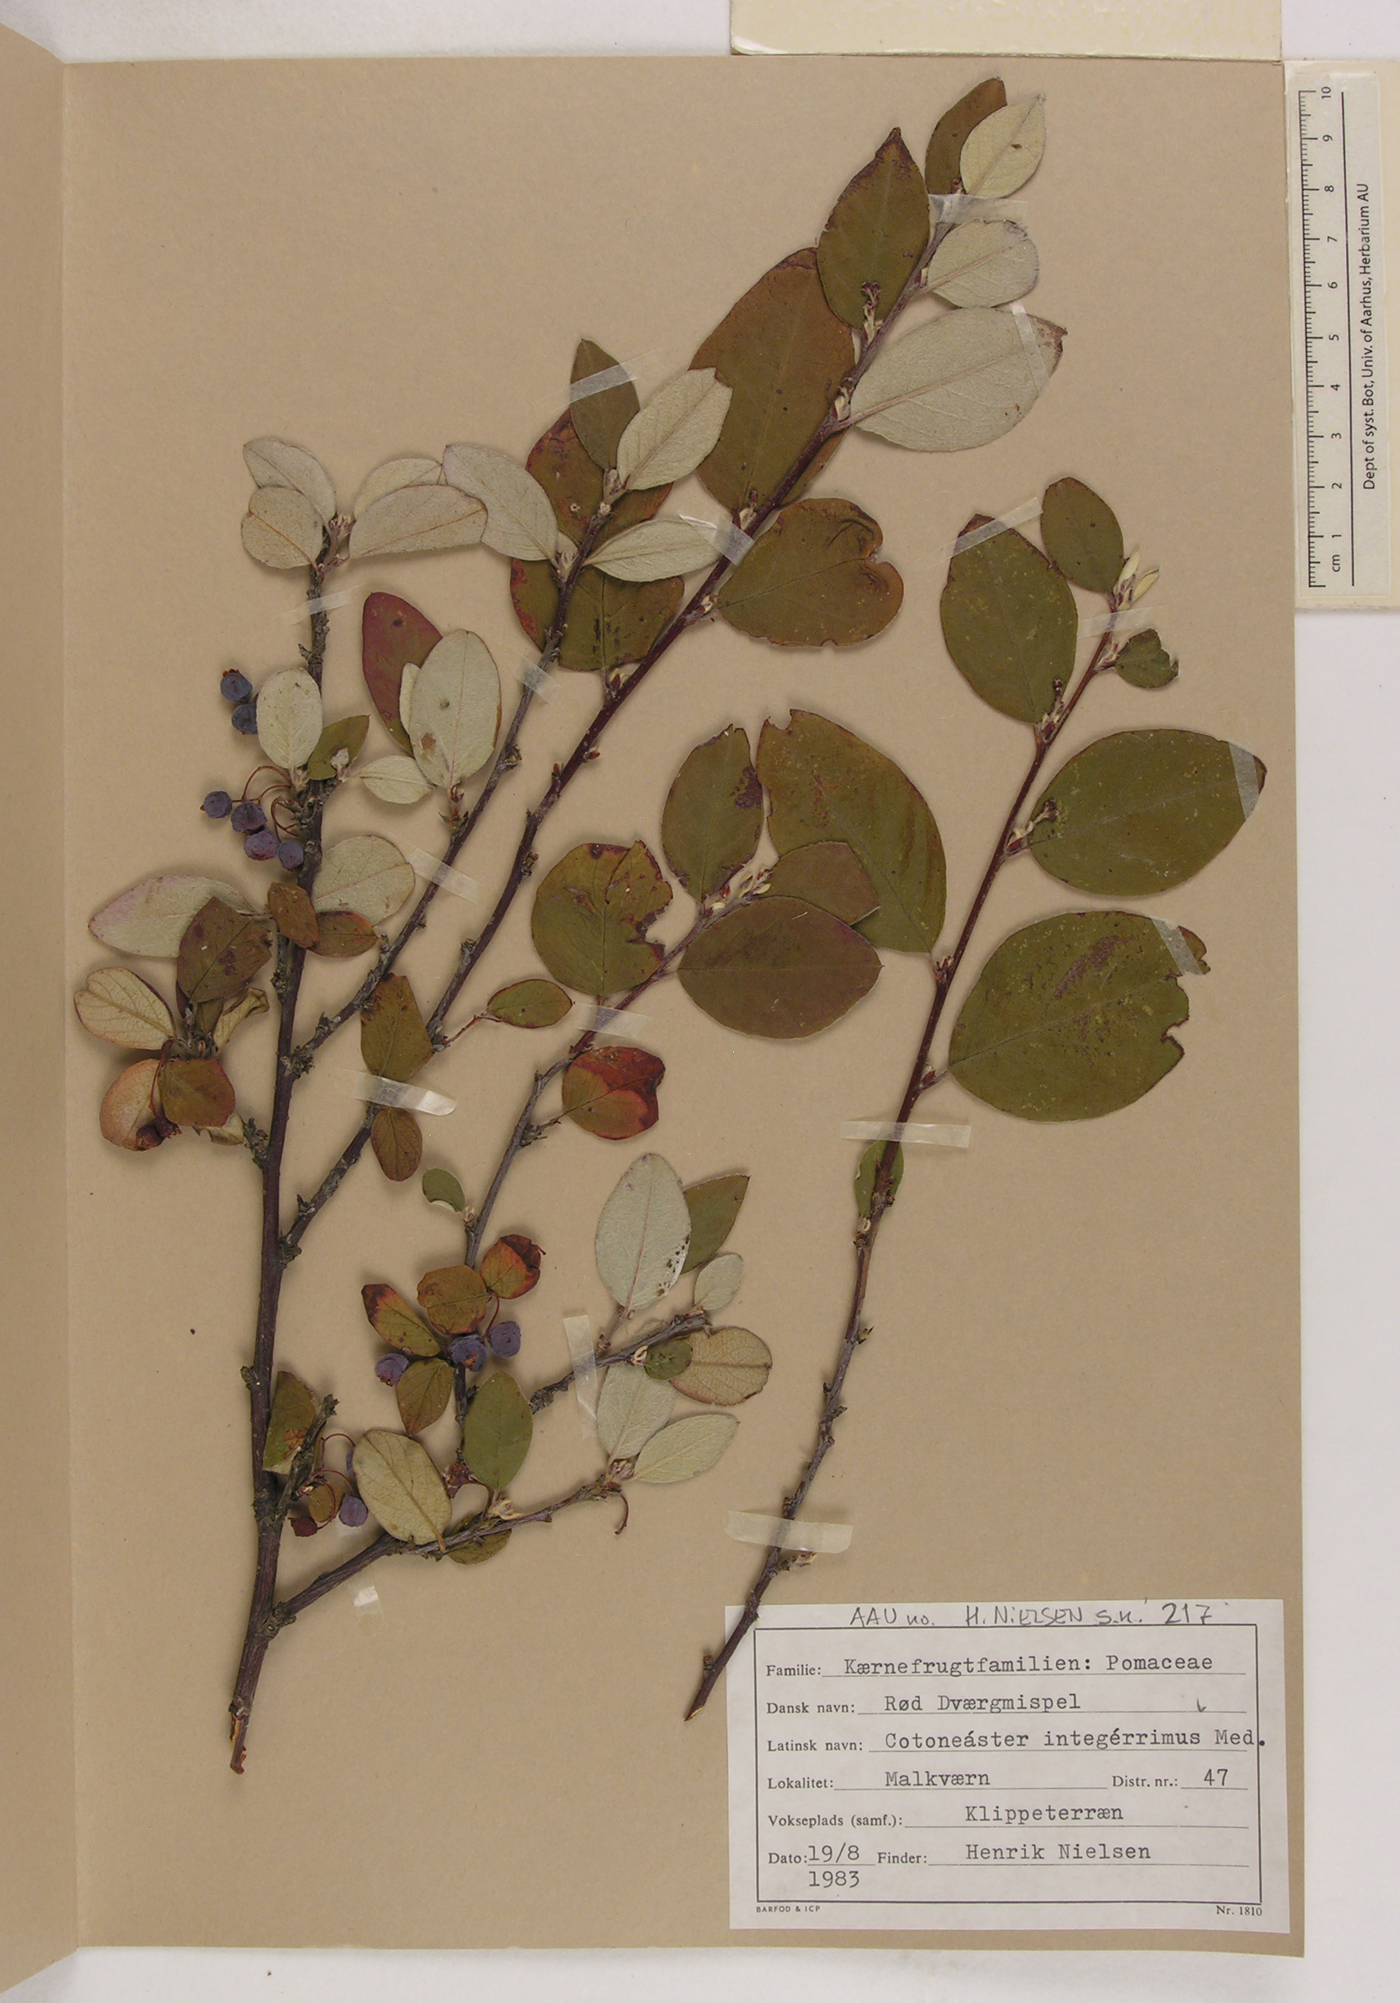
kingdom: Plantae
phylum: Tracheophyta
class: Magnoliopsida
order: Rosales
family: Rosaceae
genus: Cotoneaster
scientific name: Cotoneaster integerrimus
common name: Wild cotoneaster
